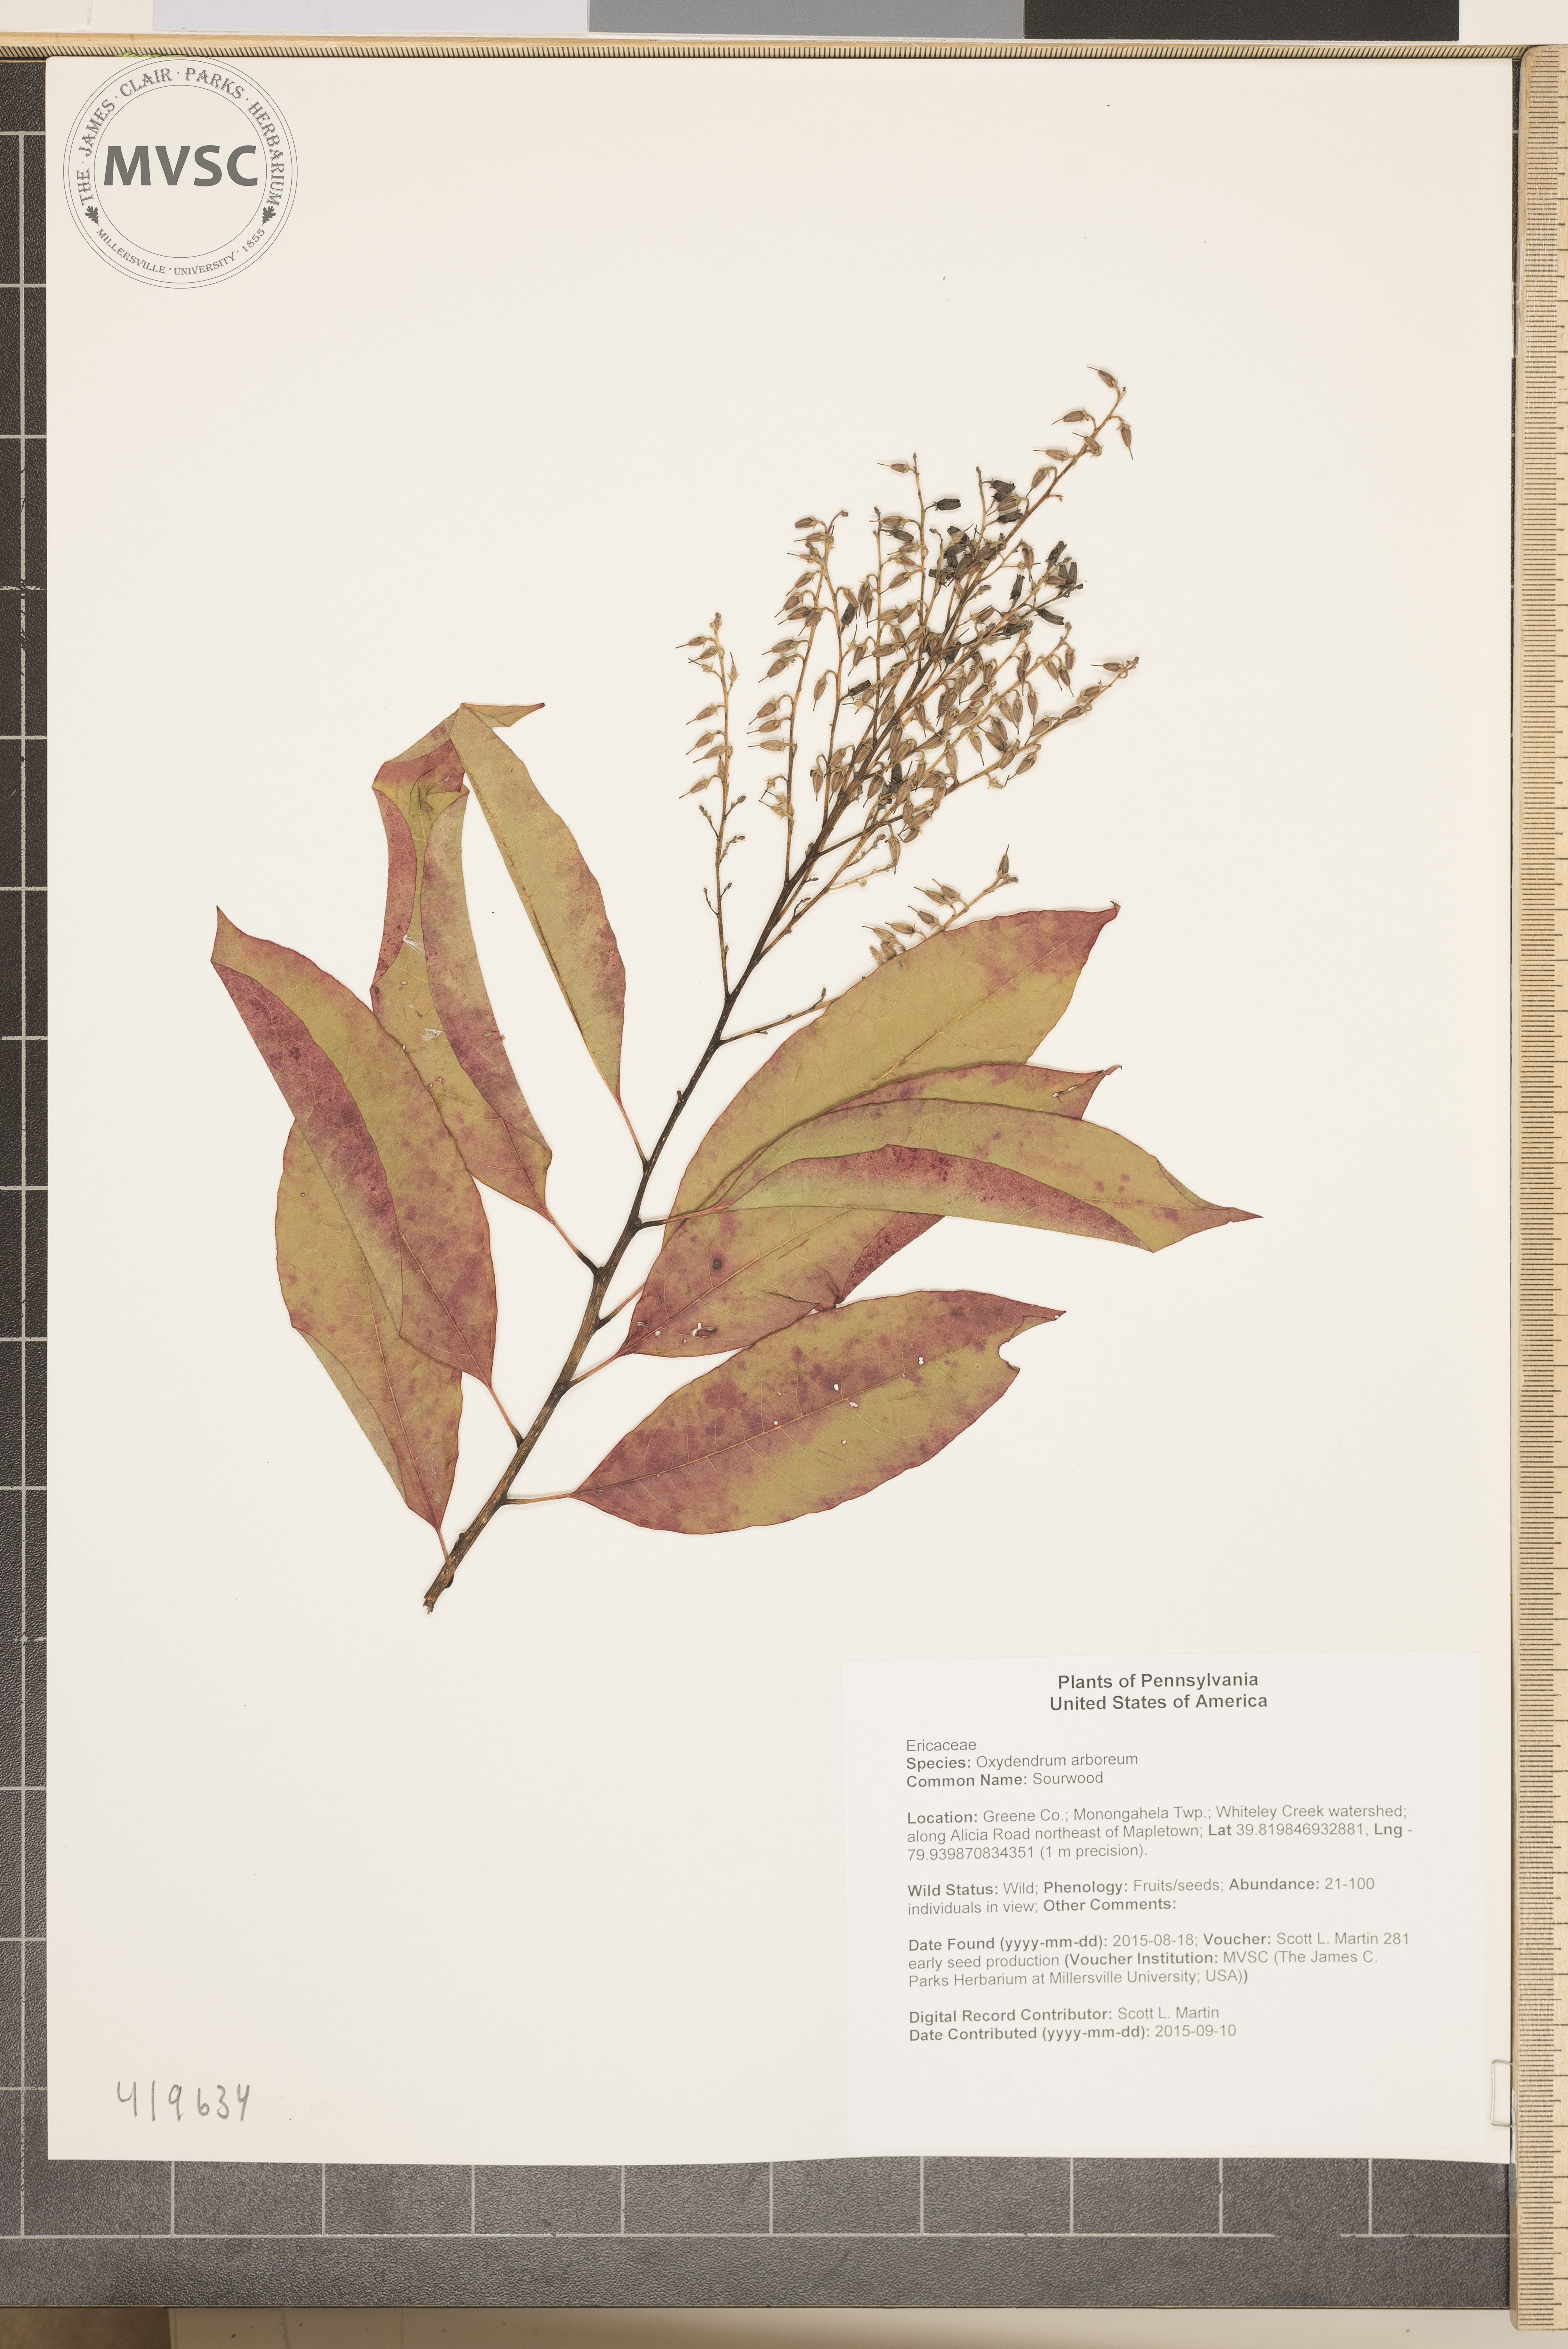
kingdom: Plantae
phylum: Tracheophyta
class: Magnoliopsida
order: Ericales
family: Ericaceae
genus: Oxydendrum
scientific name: Oxydendrum arboreum
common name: Sourwood
